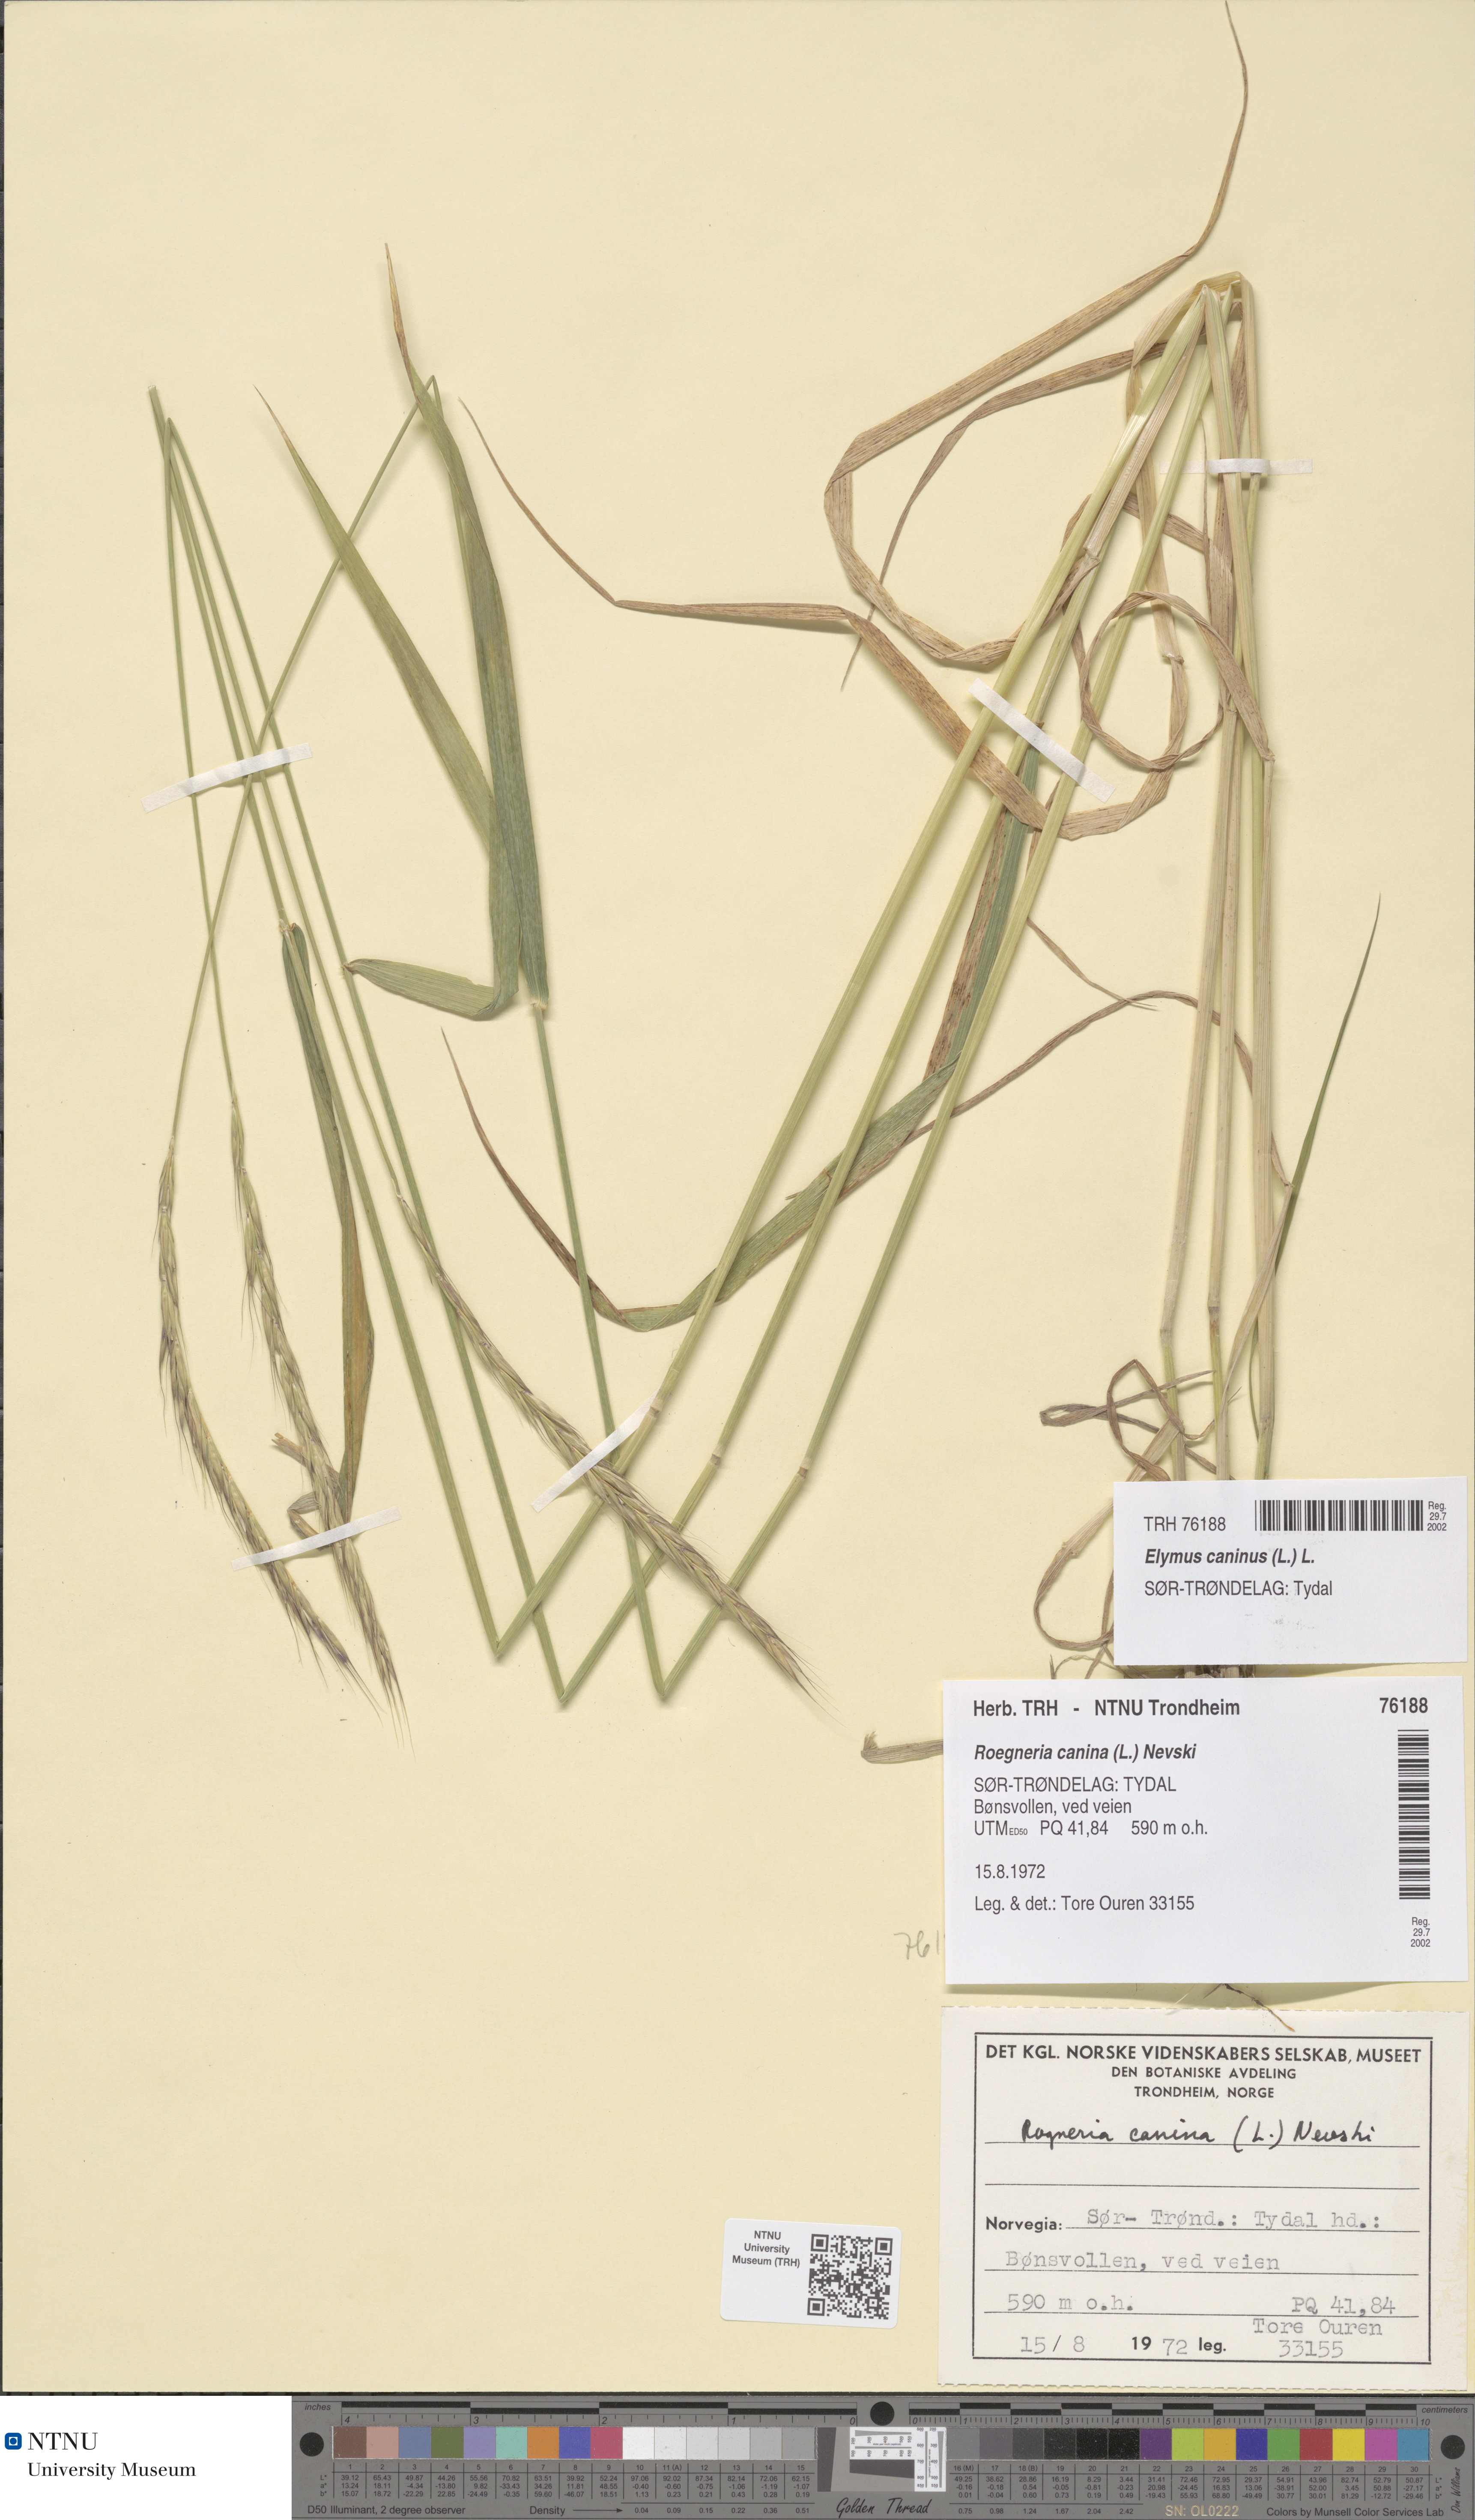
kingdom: Plantae
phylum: Tracheophyta
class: Liliopsida
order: Poales
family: Poaceae
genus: Elymus
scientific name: Elymus caninus
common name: Bearded couch
